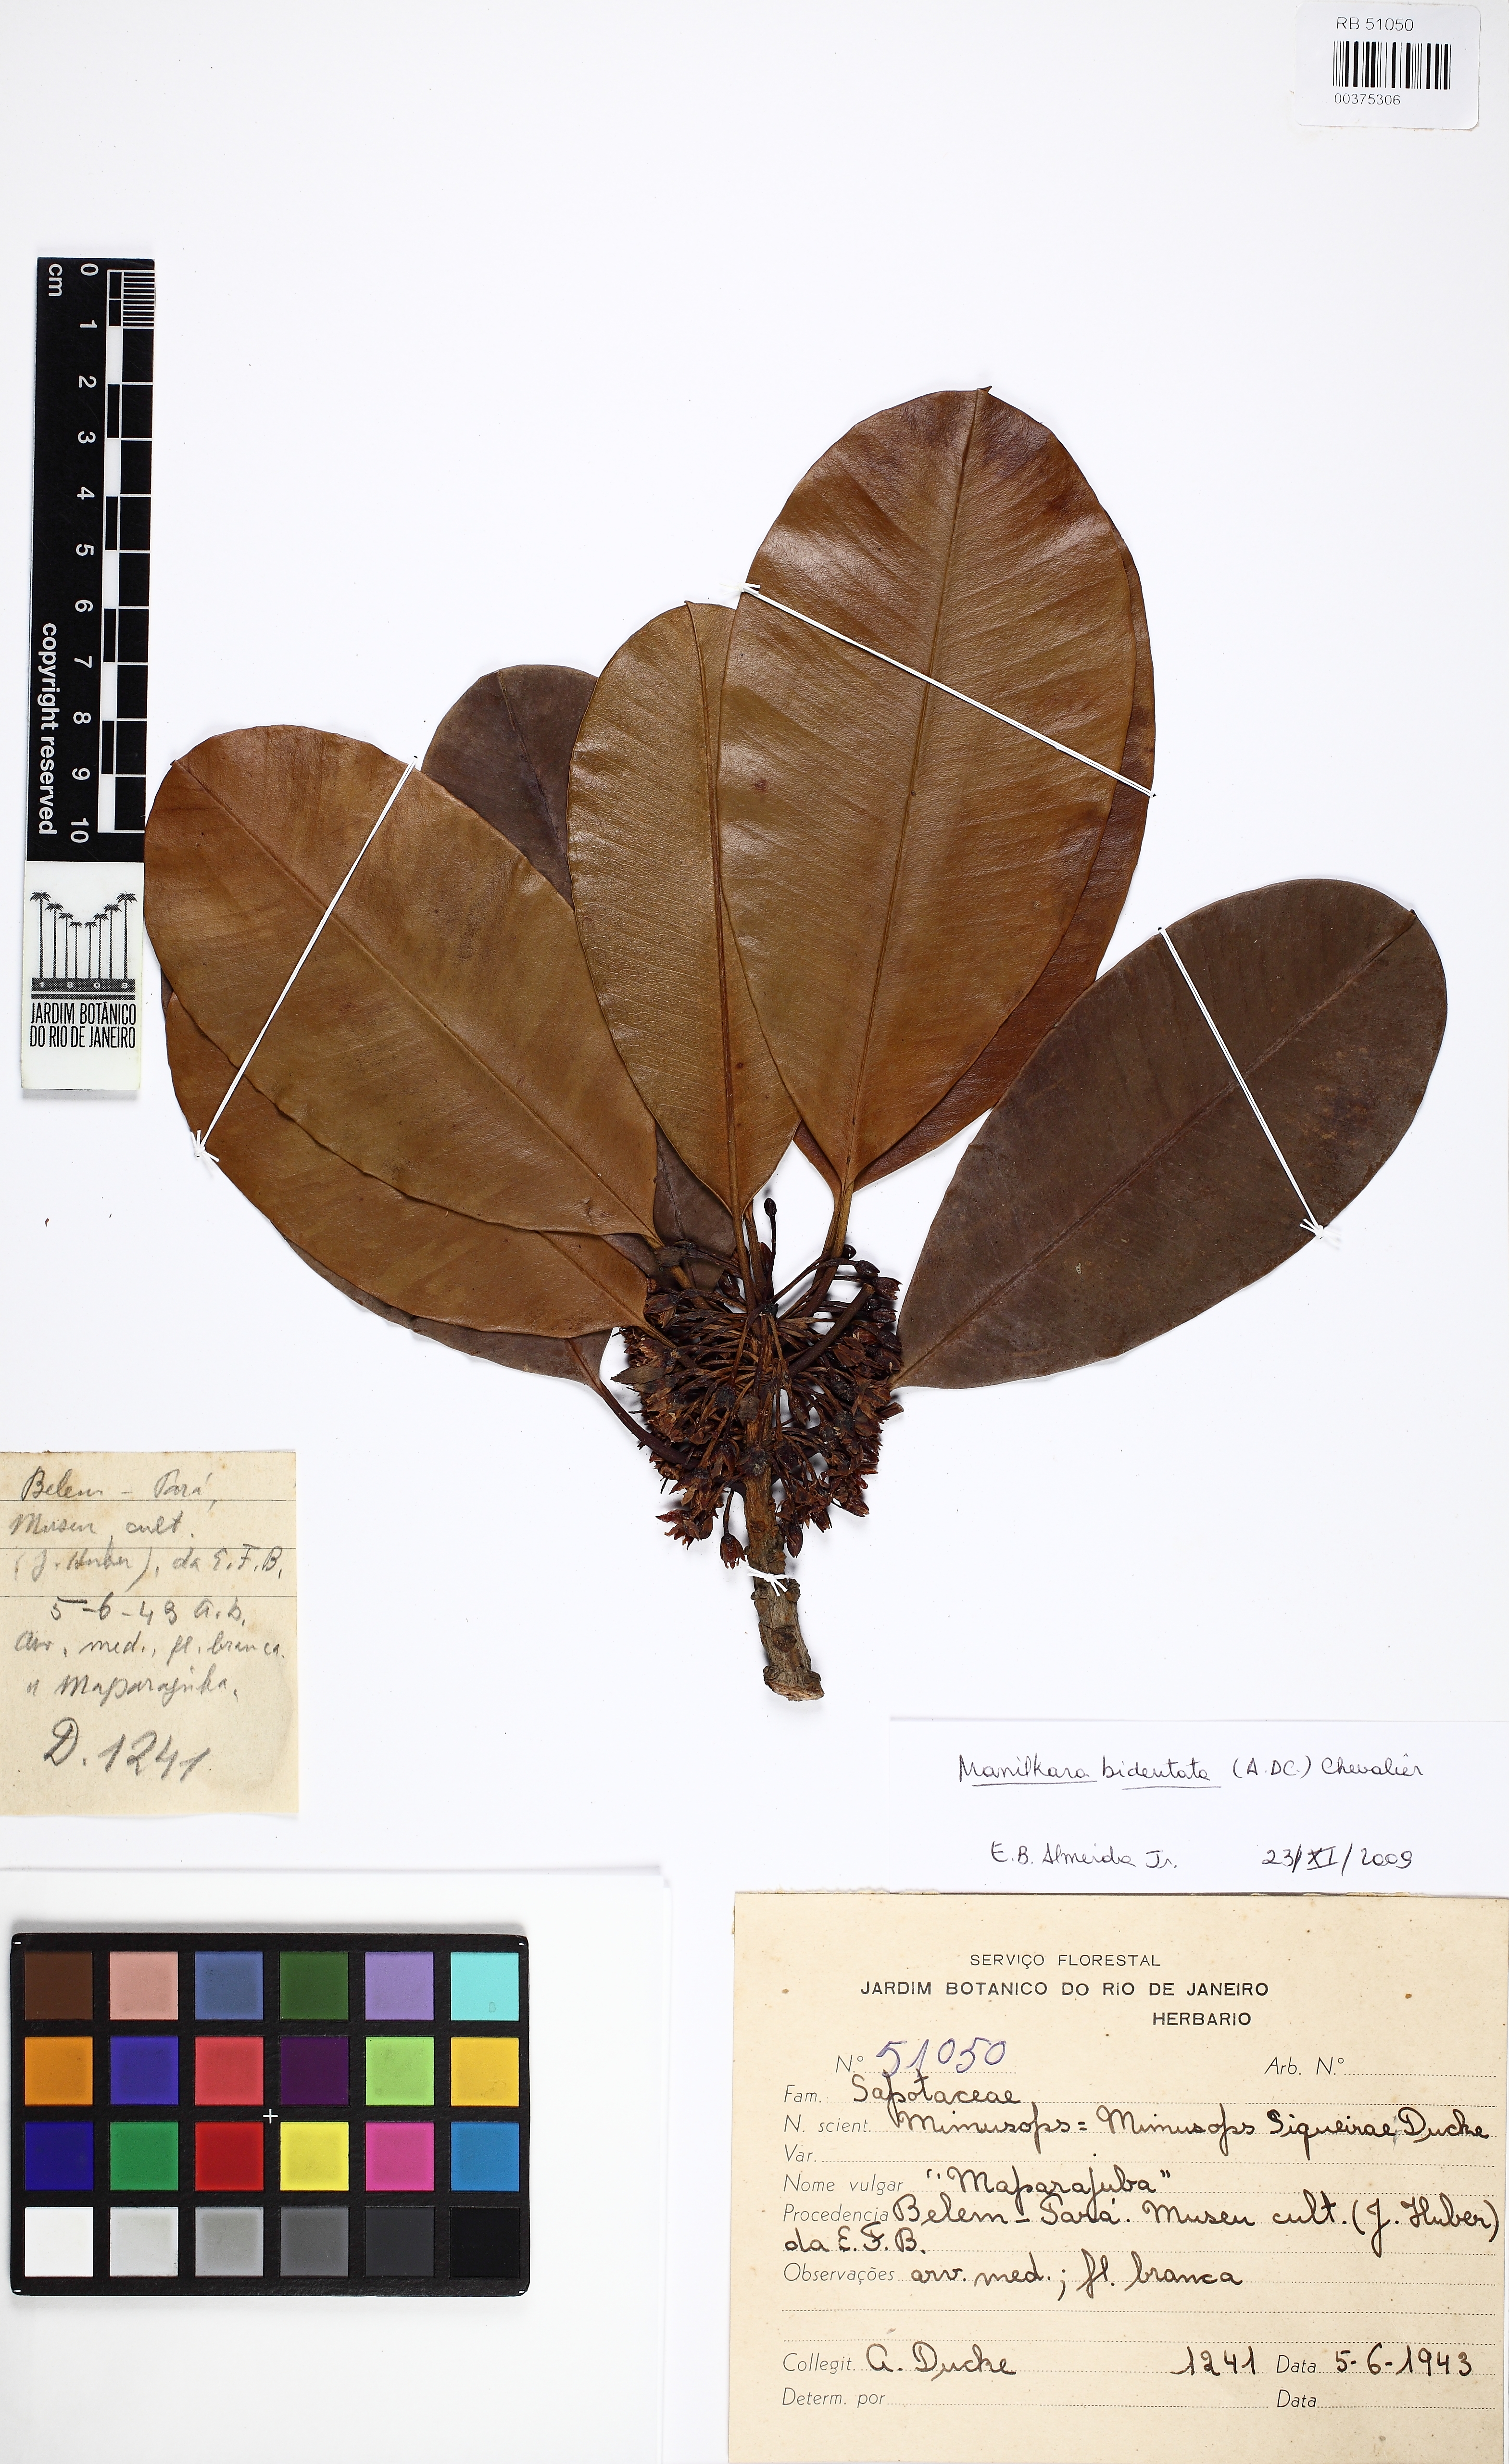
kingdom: Plantae
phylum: Tracheophyta
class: Magnoliopsida
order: Ericales
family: Sapotaceae
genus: Manilkara
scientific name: Manilkara bidentata
